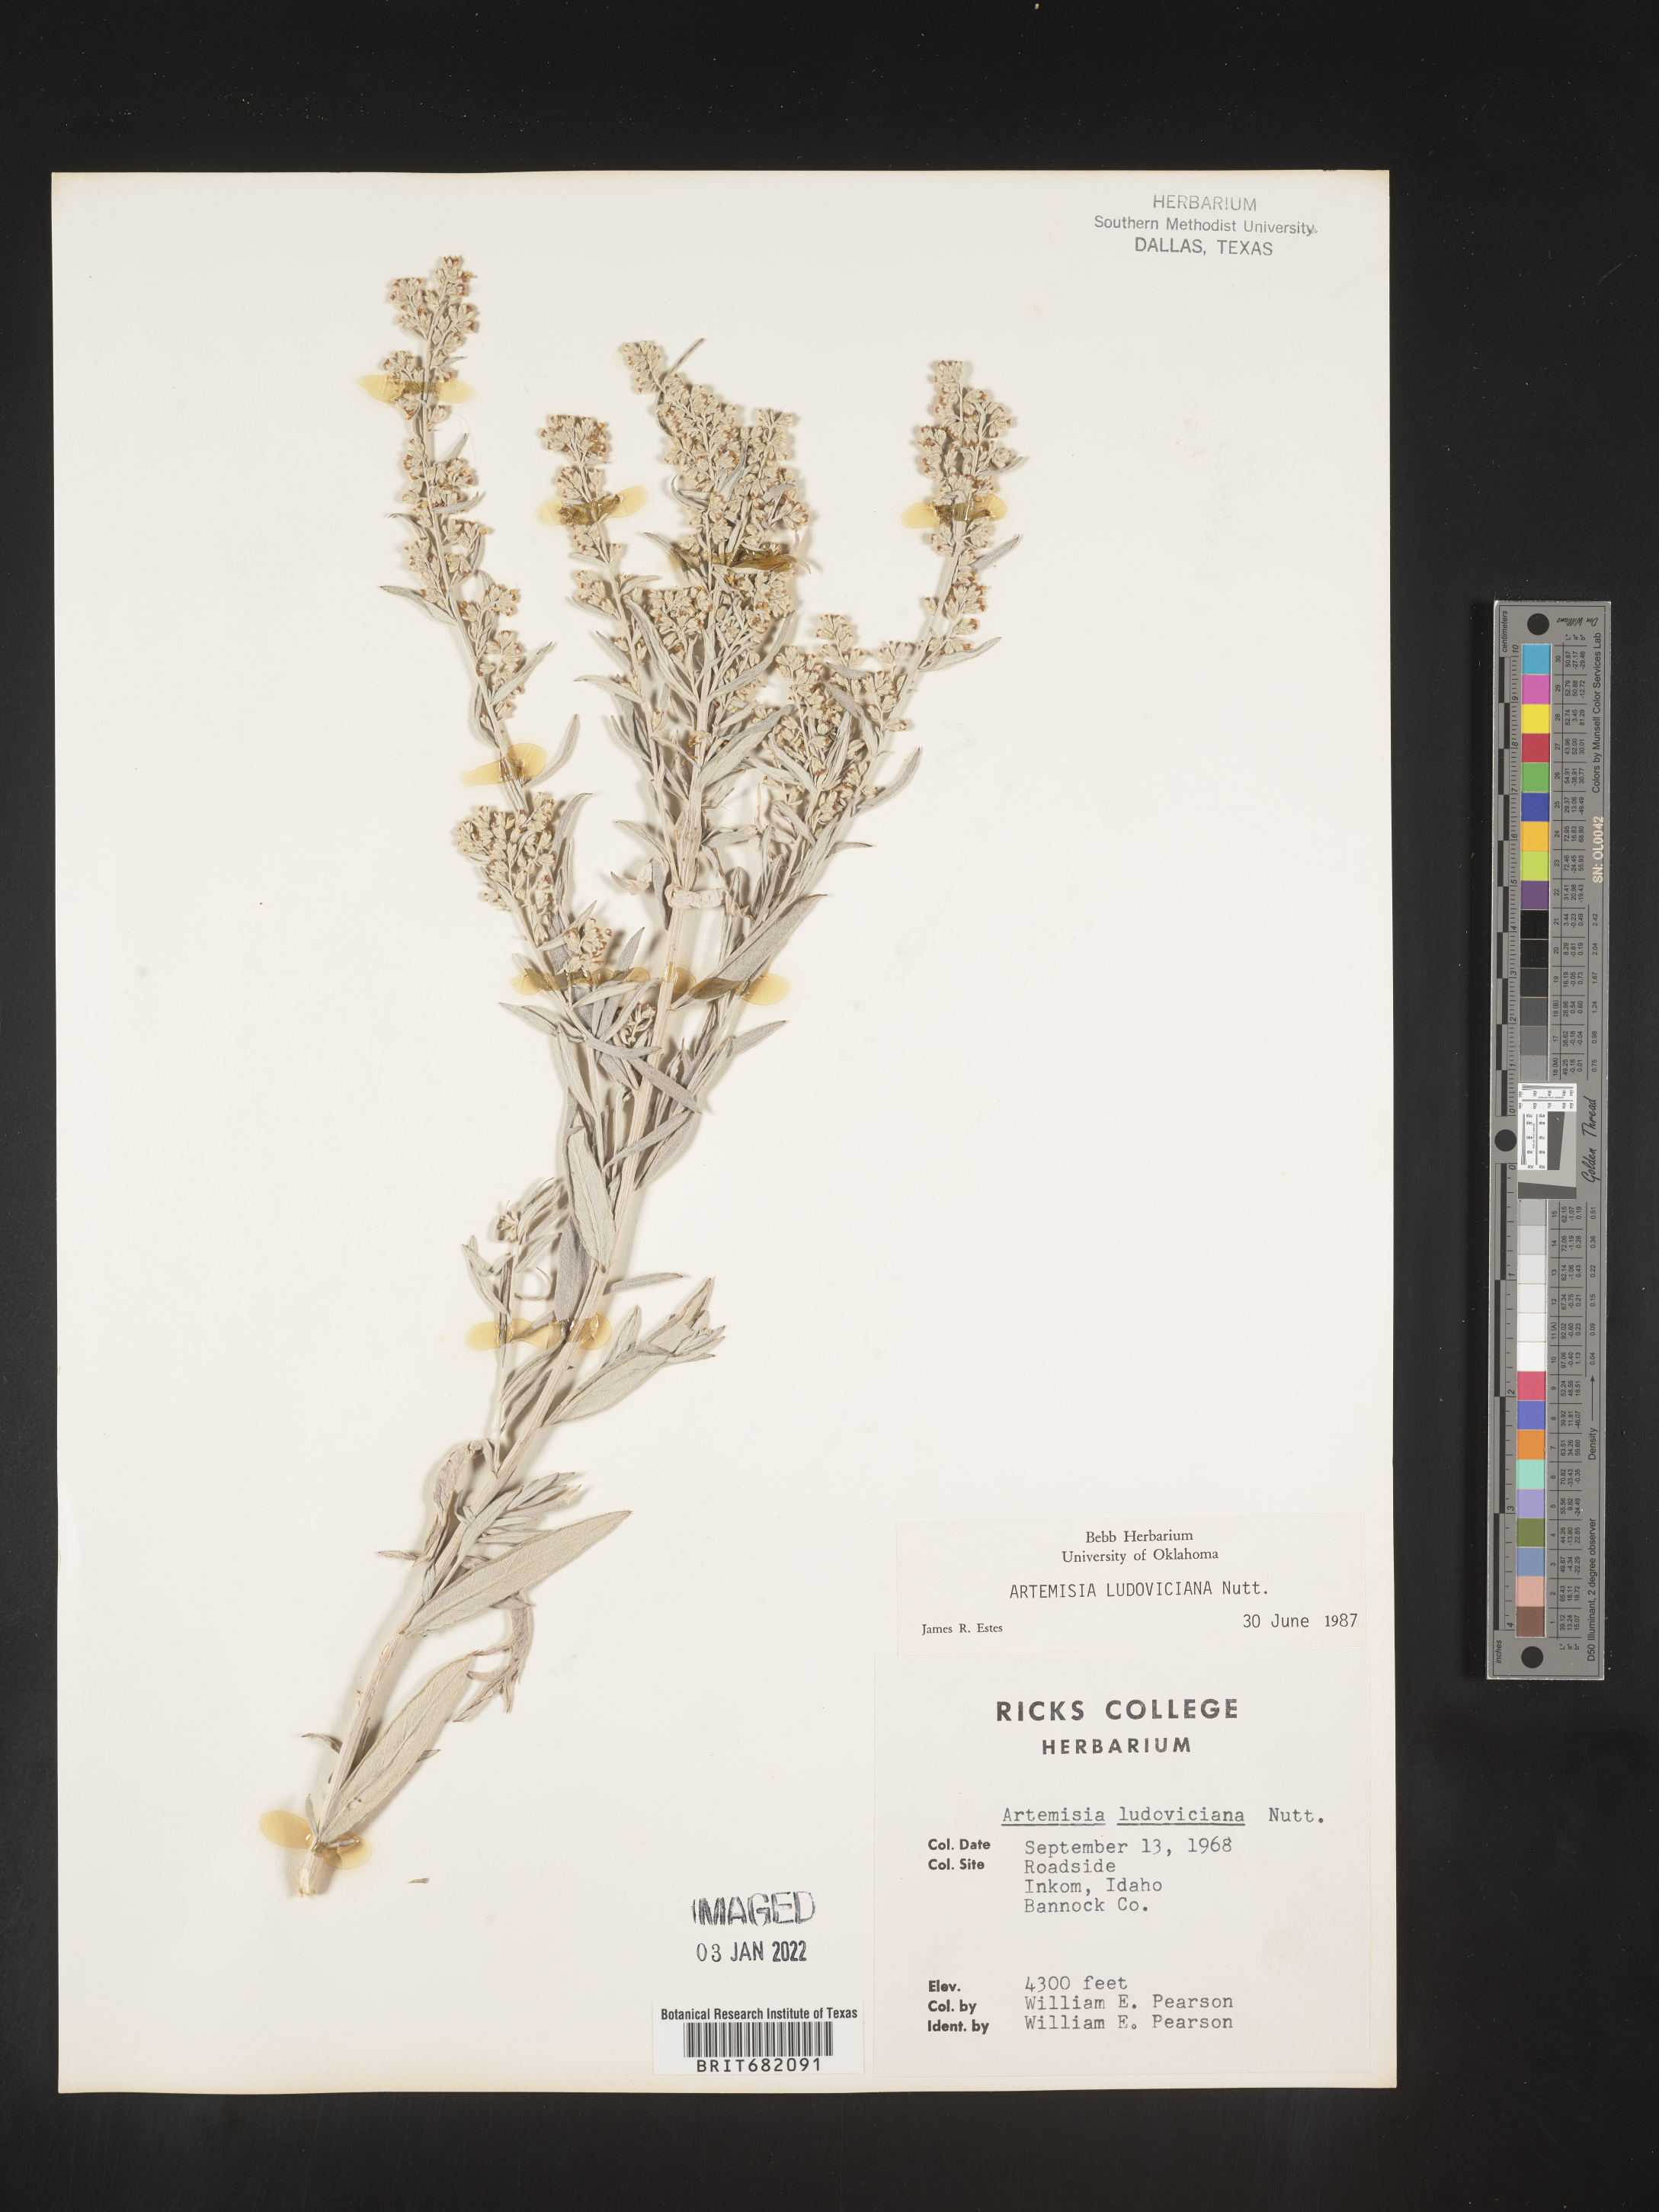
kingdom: Plantae
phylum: Tracheophyta
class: Magnoliopsida
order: Asterales
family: Asteraceae
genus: Artemisia
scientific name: Artemisia ludoviciana
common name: Western mugwort
